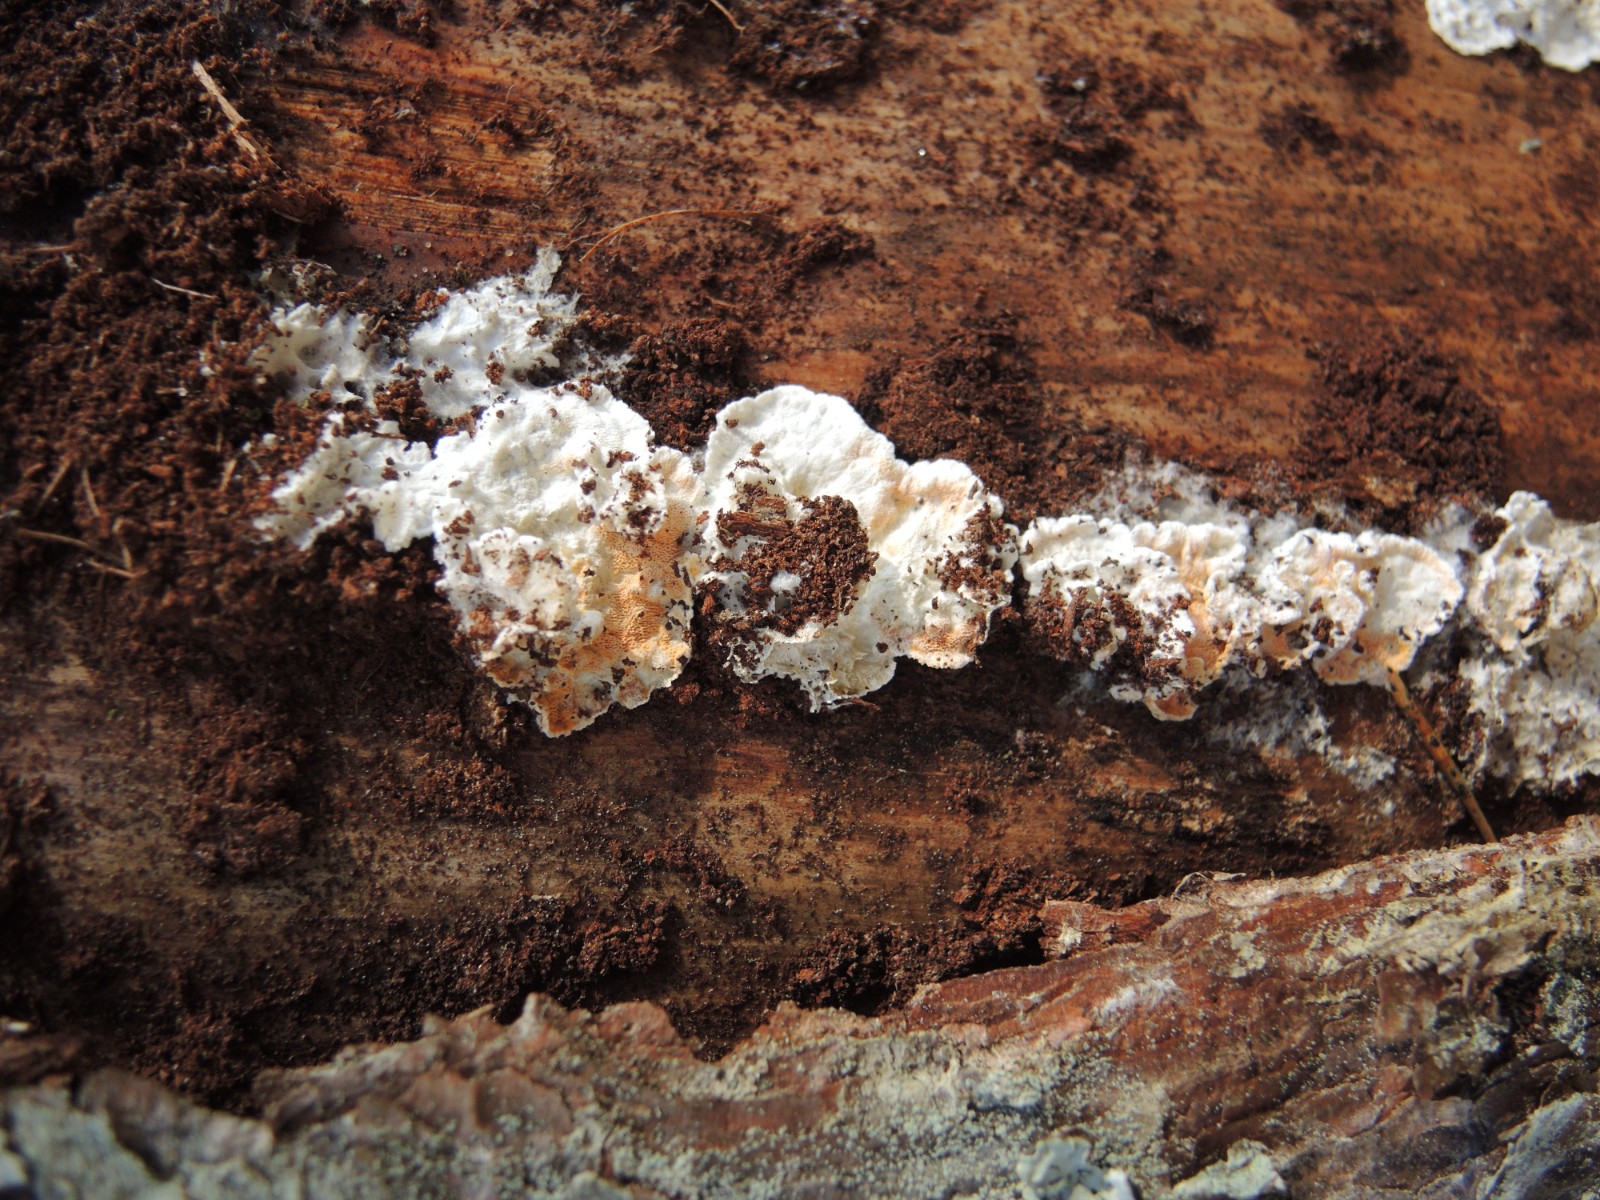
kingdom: Fungi
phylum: Basidiomycota
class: Agaricomycetes
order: Polyporales
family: Incrustoporiaceae
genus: Skeletocutis
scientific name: Skeletocutis amorpha
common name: orange krystalporesvamp
